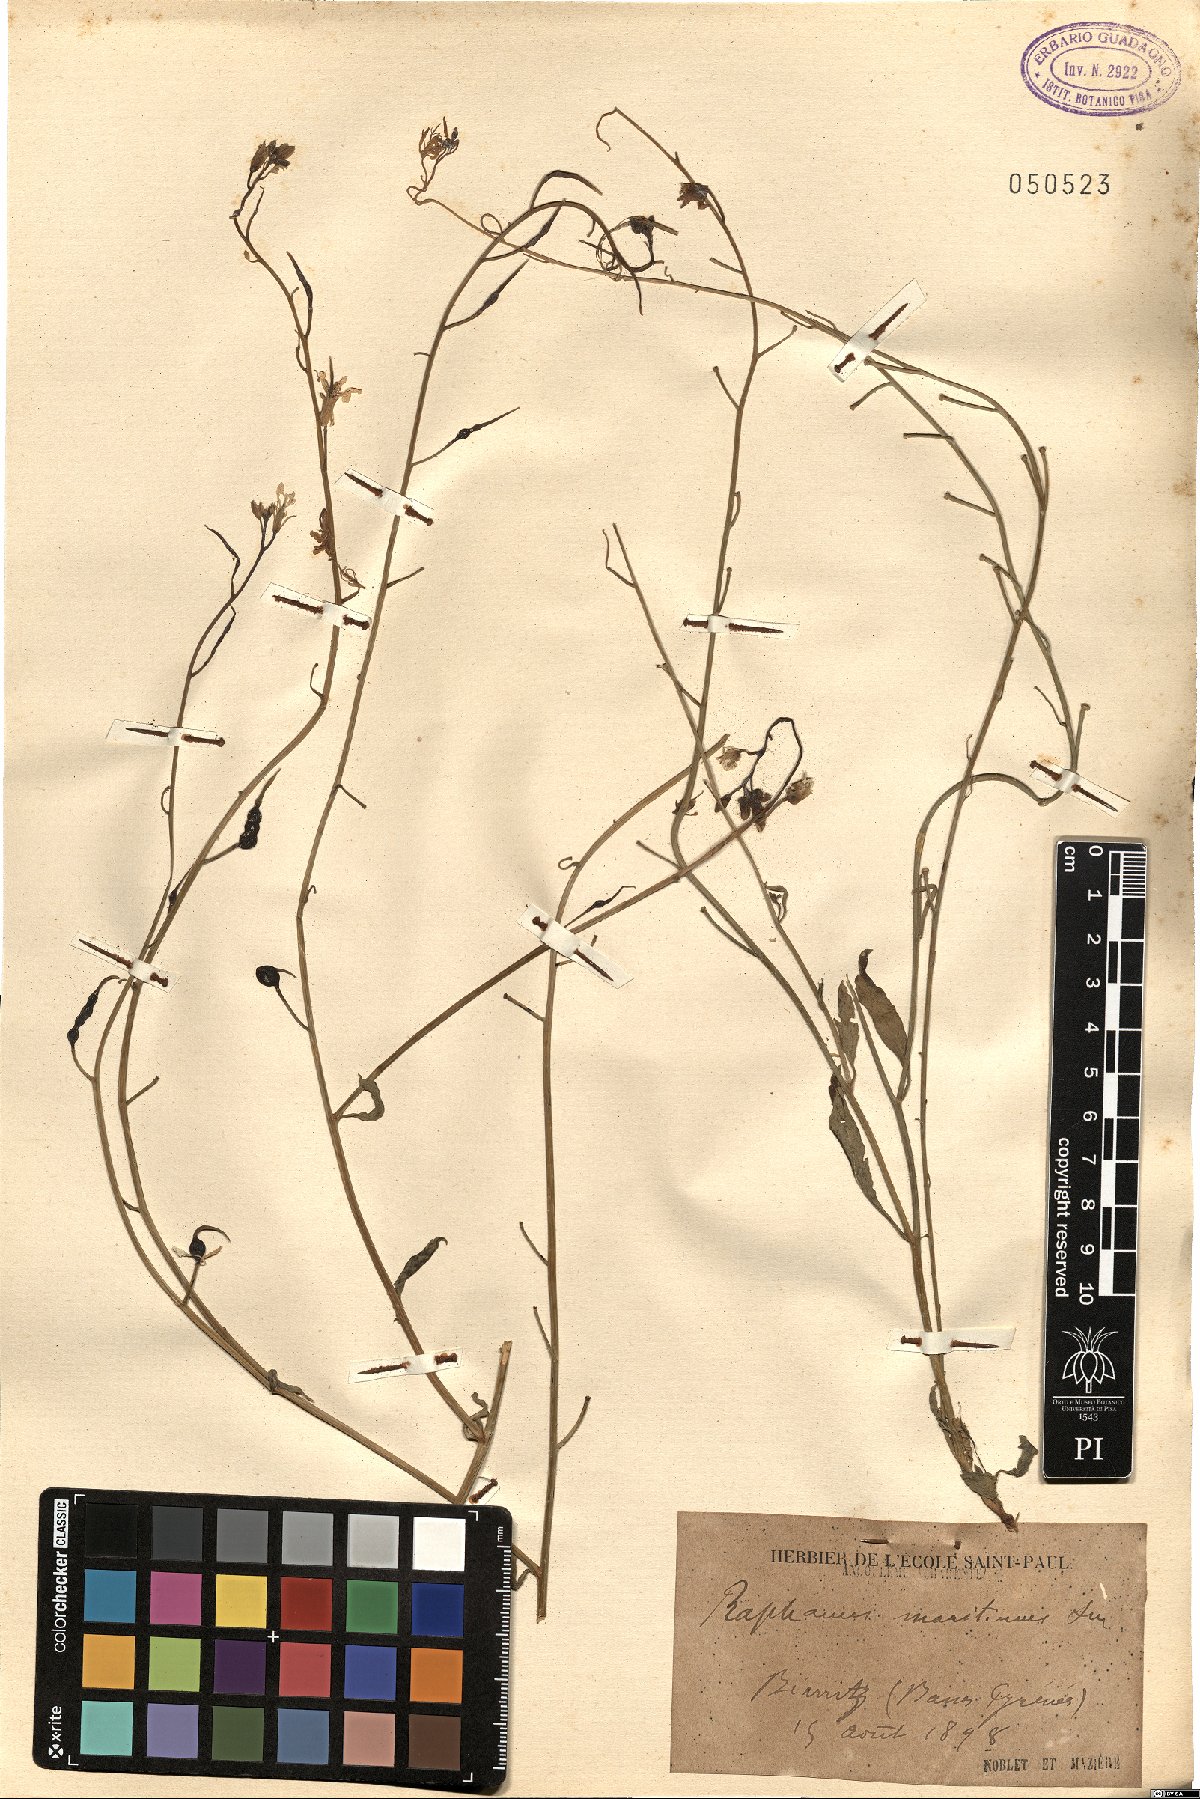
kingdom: Plantae
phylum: Tracheophyta
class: Magnoliopsida
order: Brassicales
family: Brassicaceae
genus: Raphanus
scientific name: Raphanus raphanistrum
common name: Wild radish
